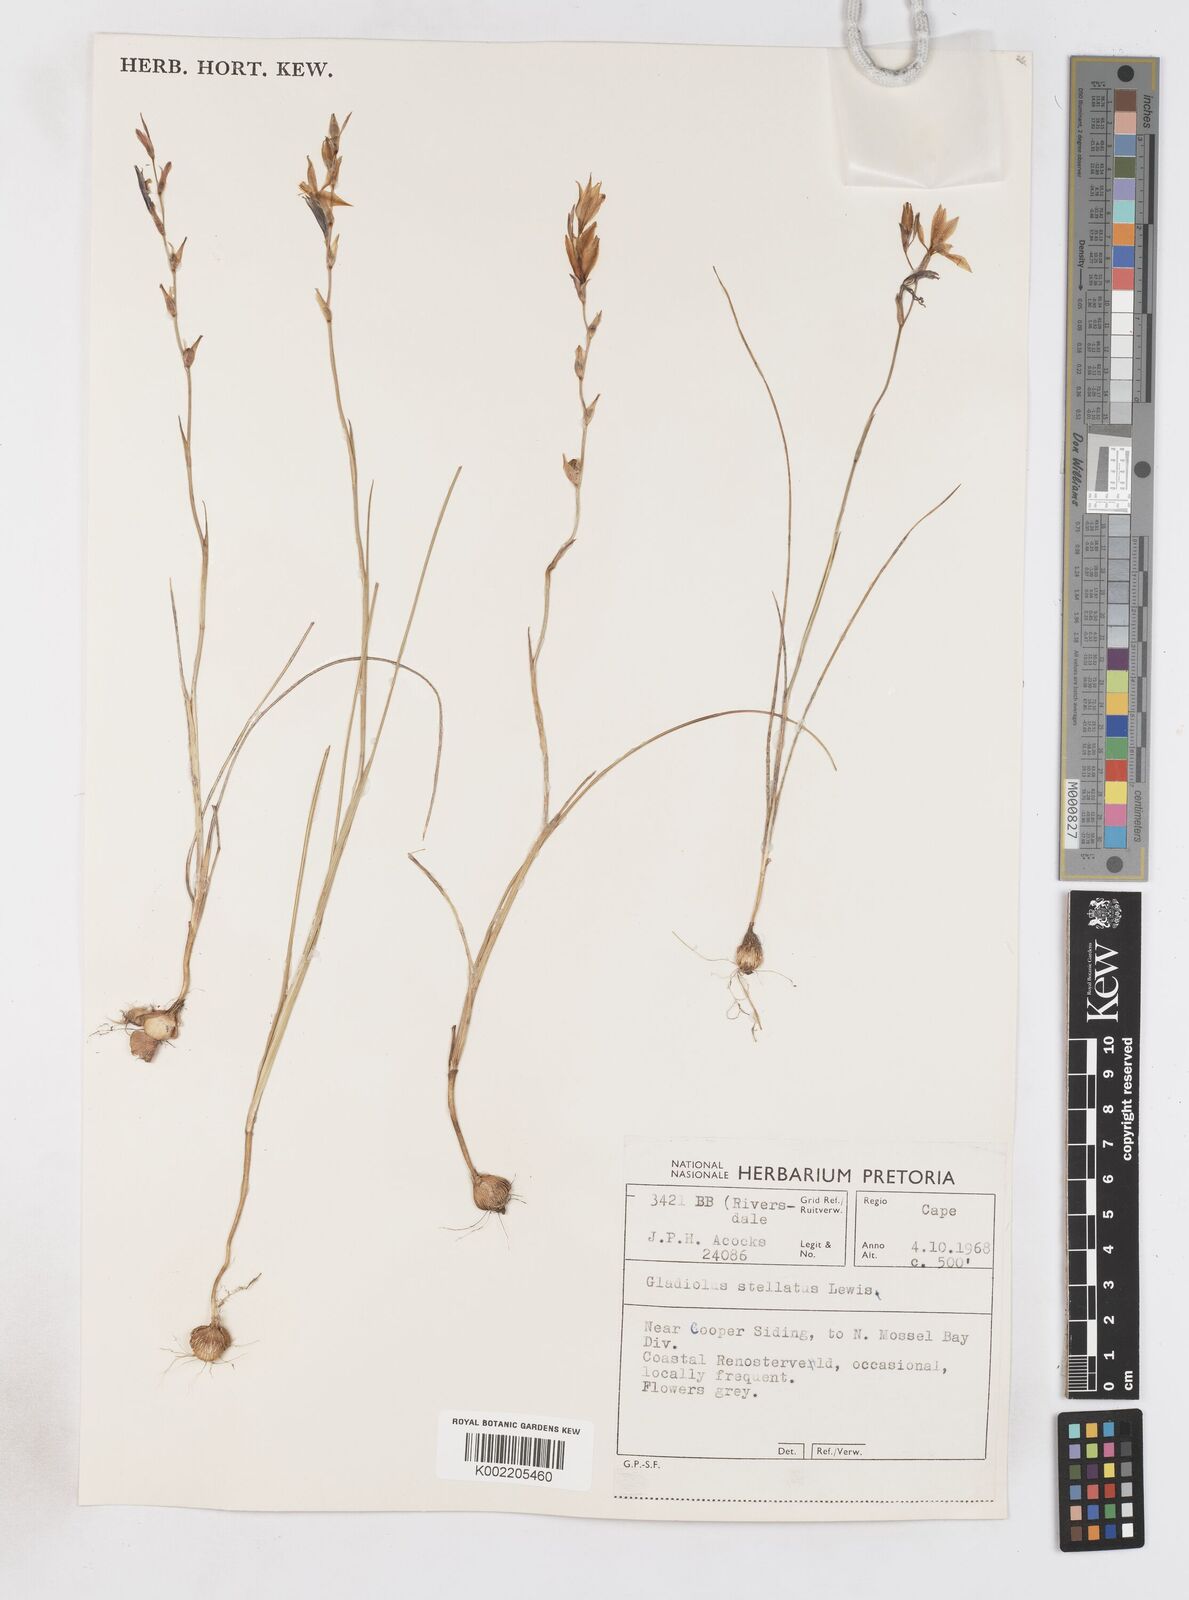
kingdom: Plantae
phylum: Tracheophyta
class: Liliopsida
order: Asparagales
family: Iridaceae
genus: Gladiolus
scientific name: Gladiolus stellatus
